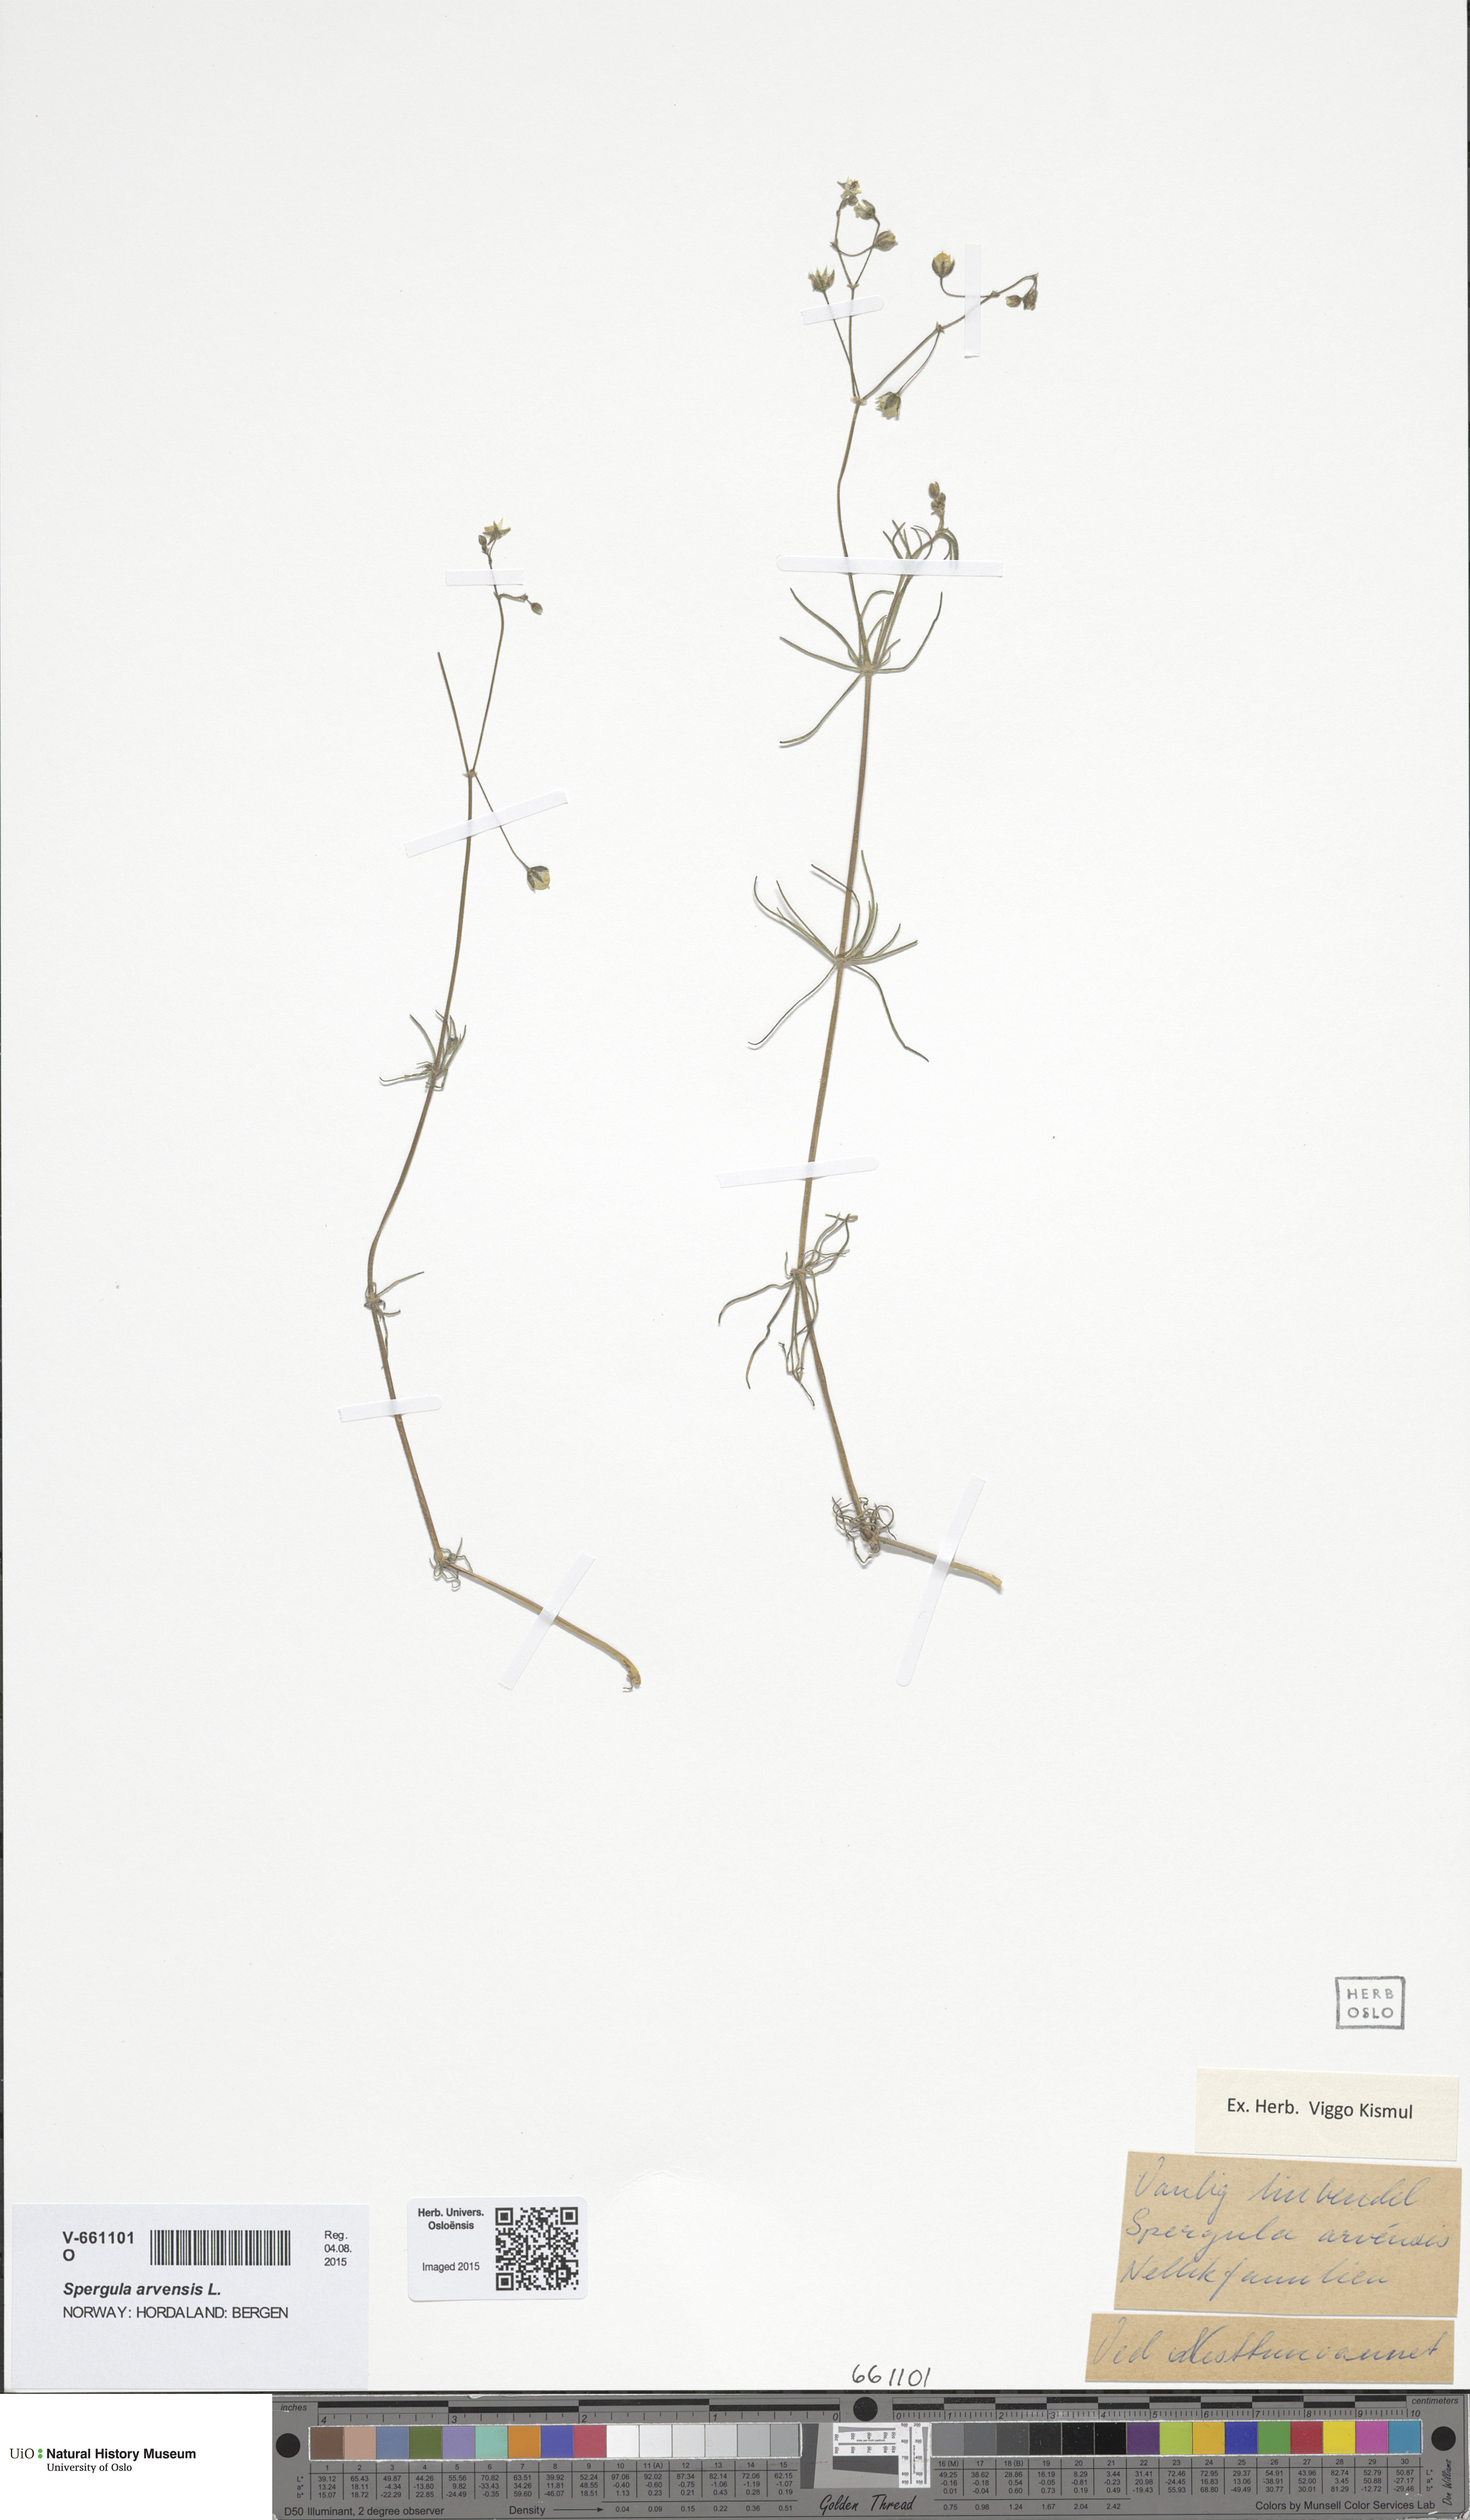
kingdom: Plantae
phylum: Tracheophyta
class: Magnoliopsida
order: Caryophyllales
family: Caryophyllaceae
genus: Spergula
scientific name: Spergula arvensis
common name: Corn spurrey
